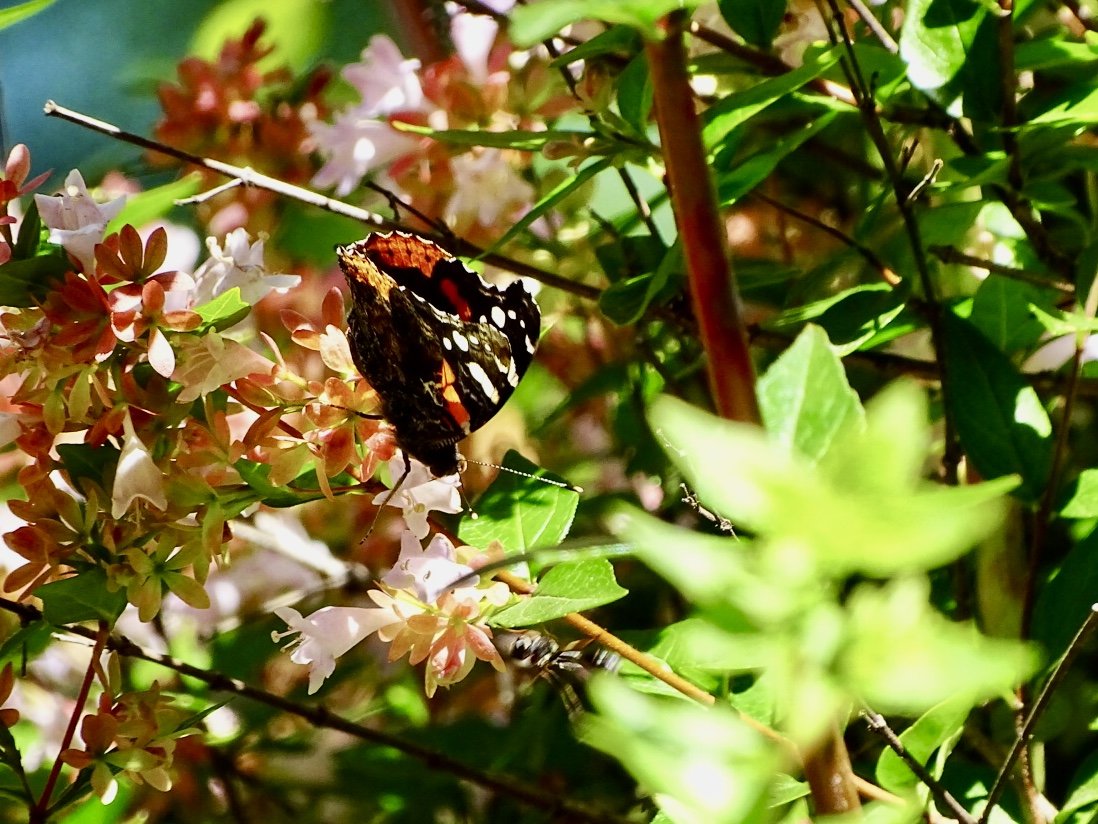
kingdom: Animalia
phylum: Arthropoda
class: Insecta
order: Lepidoptera
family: Nymphalidae
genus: Vanessa
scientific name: Vanessa atalanta
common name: Red Admiral
